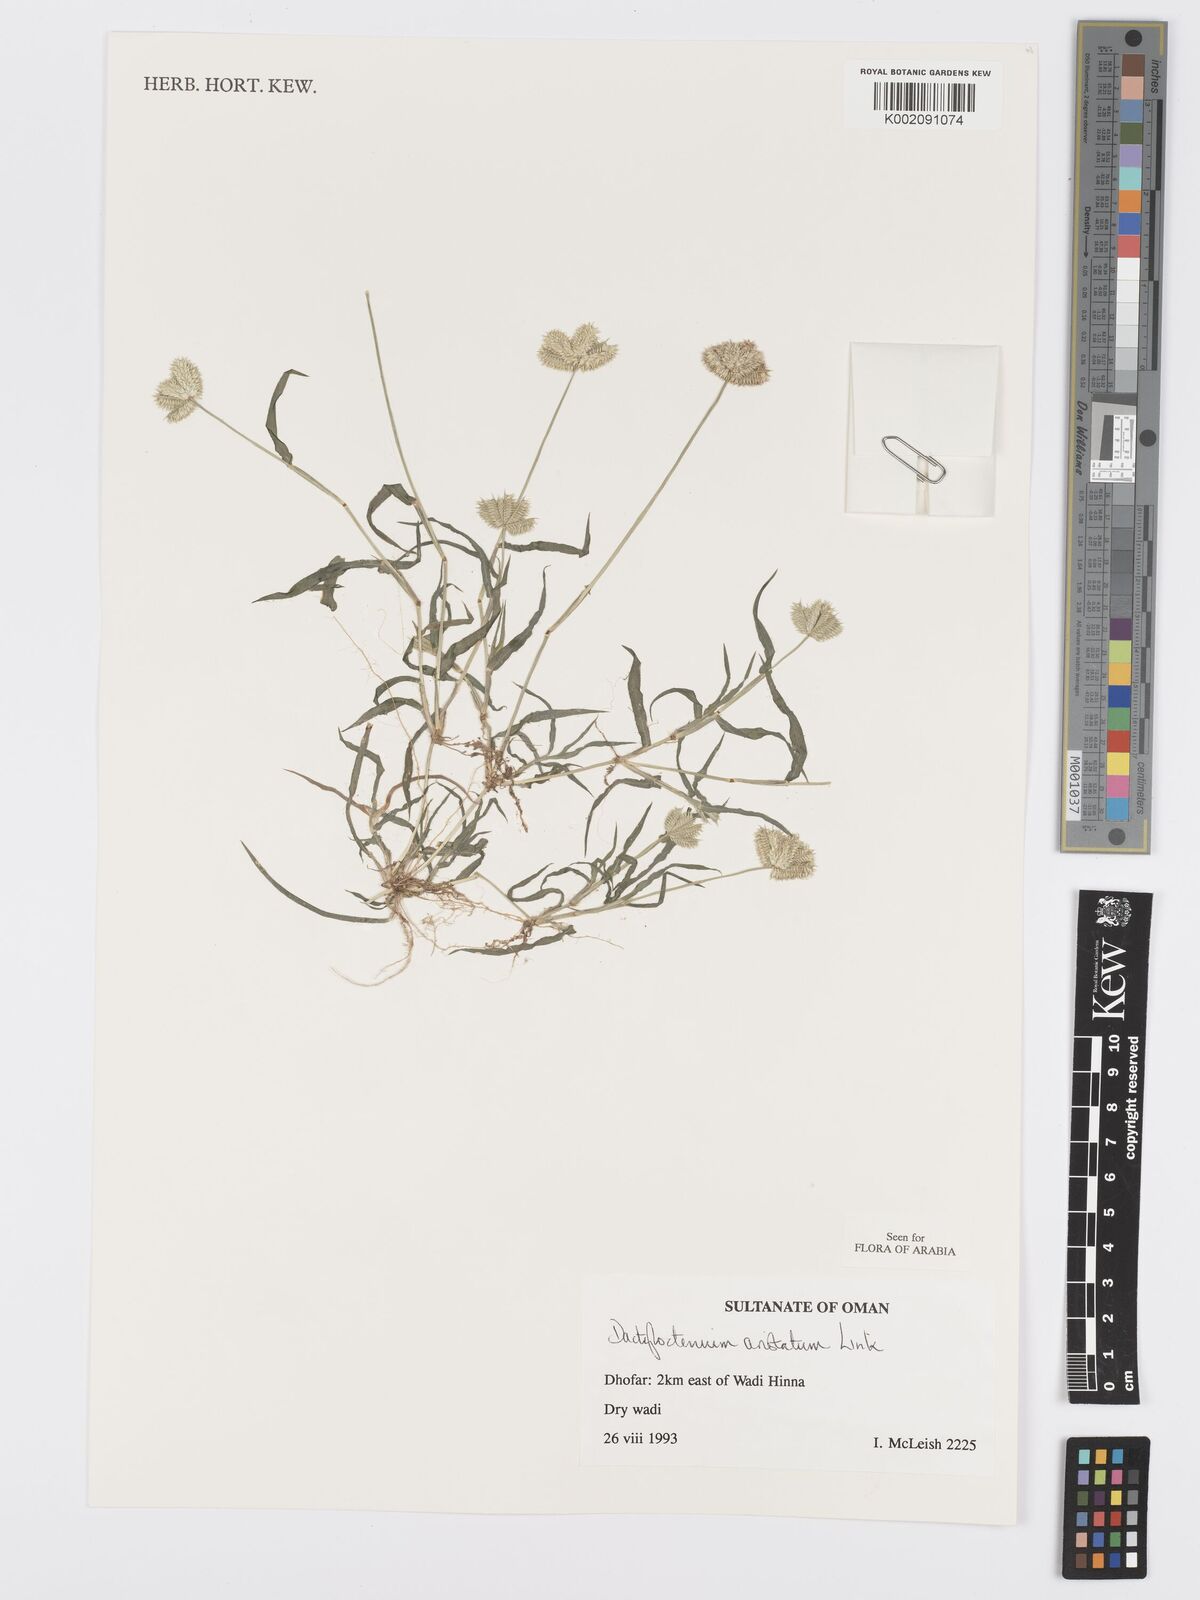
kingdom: Plantae
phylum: Tracheophyta
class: Liliopsida
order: Poales
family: Poaceae
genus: Dactyloctenium
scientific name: Dactyloctenium aristatum
